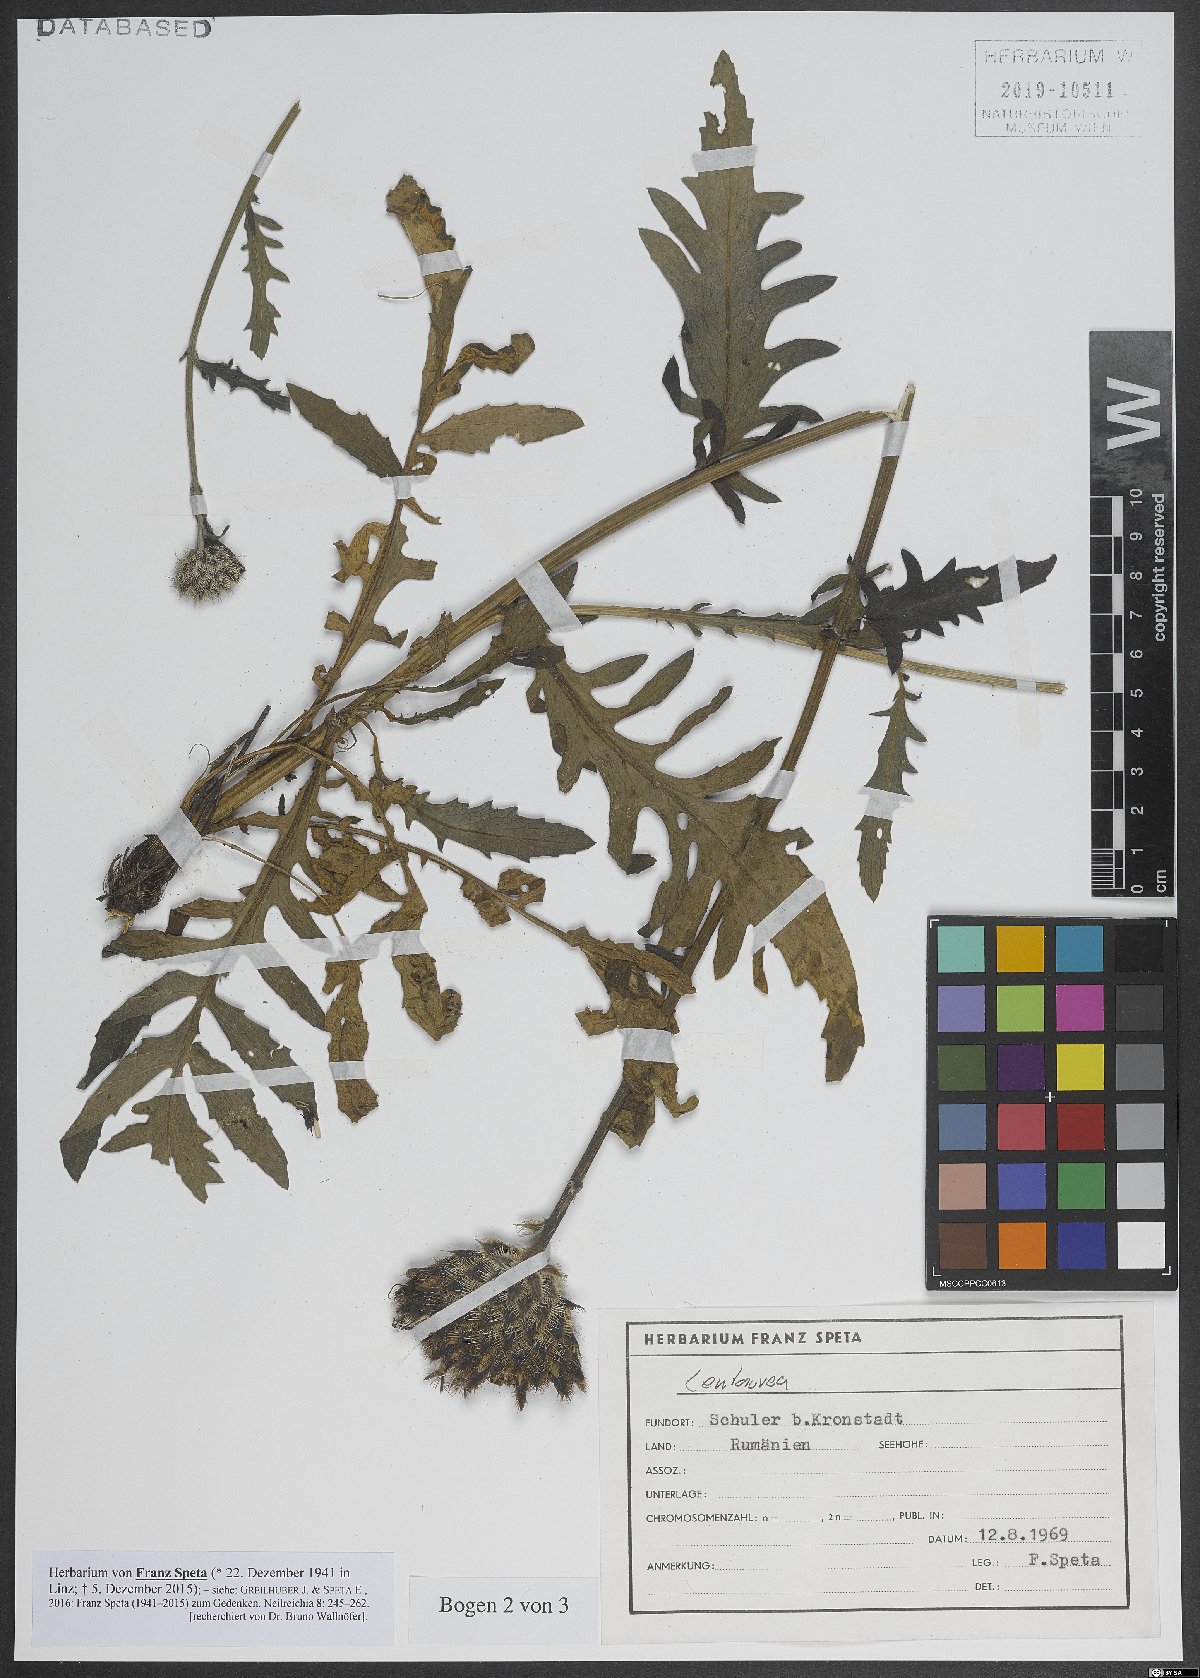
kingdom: Plantae
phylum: Tracheophyta
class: Magnoliopsida
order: Asterales
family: Asteraceae
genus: Centaurea
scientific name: Centaurea
